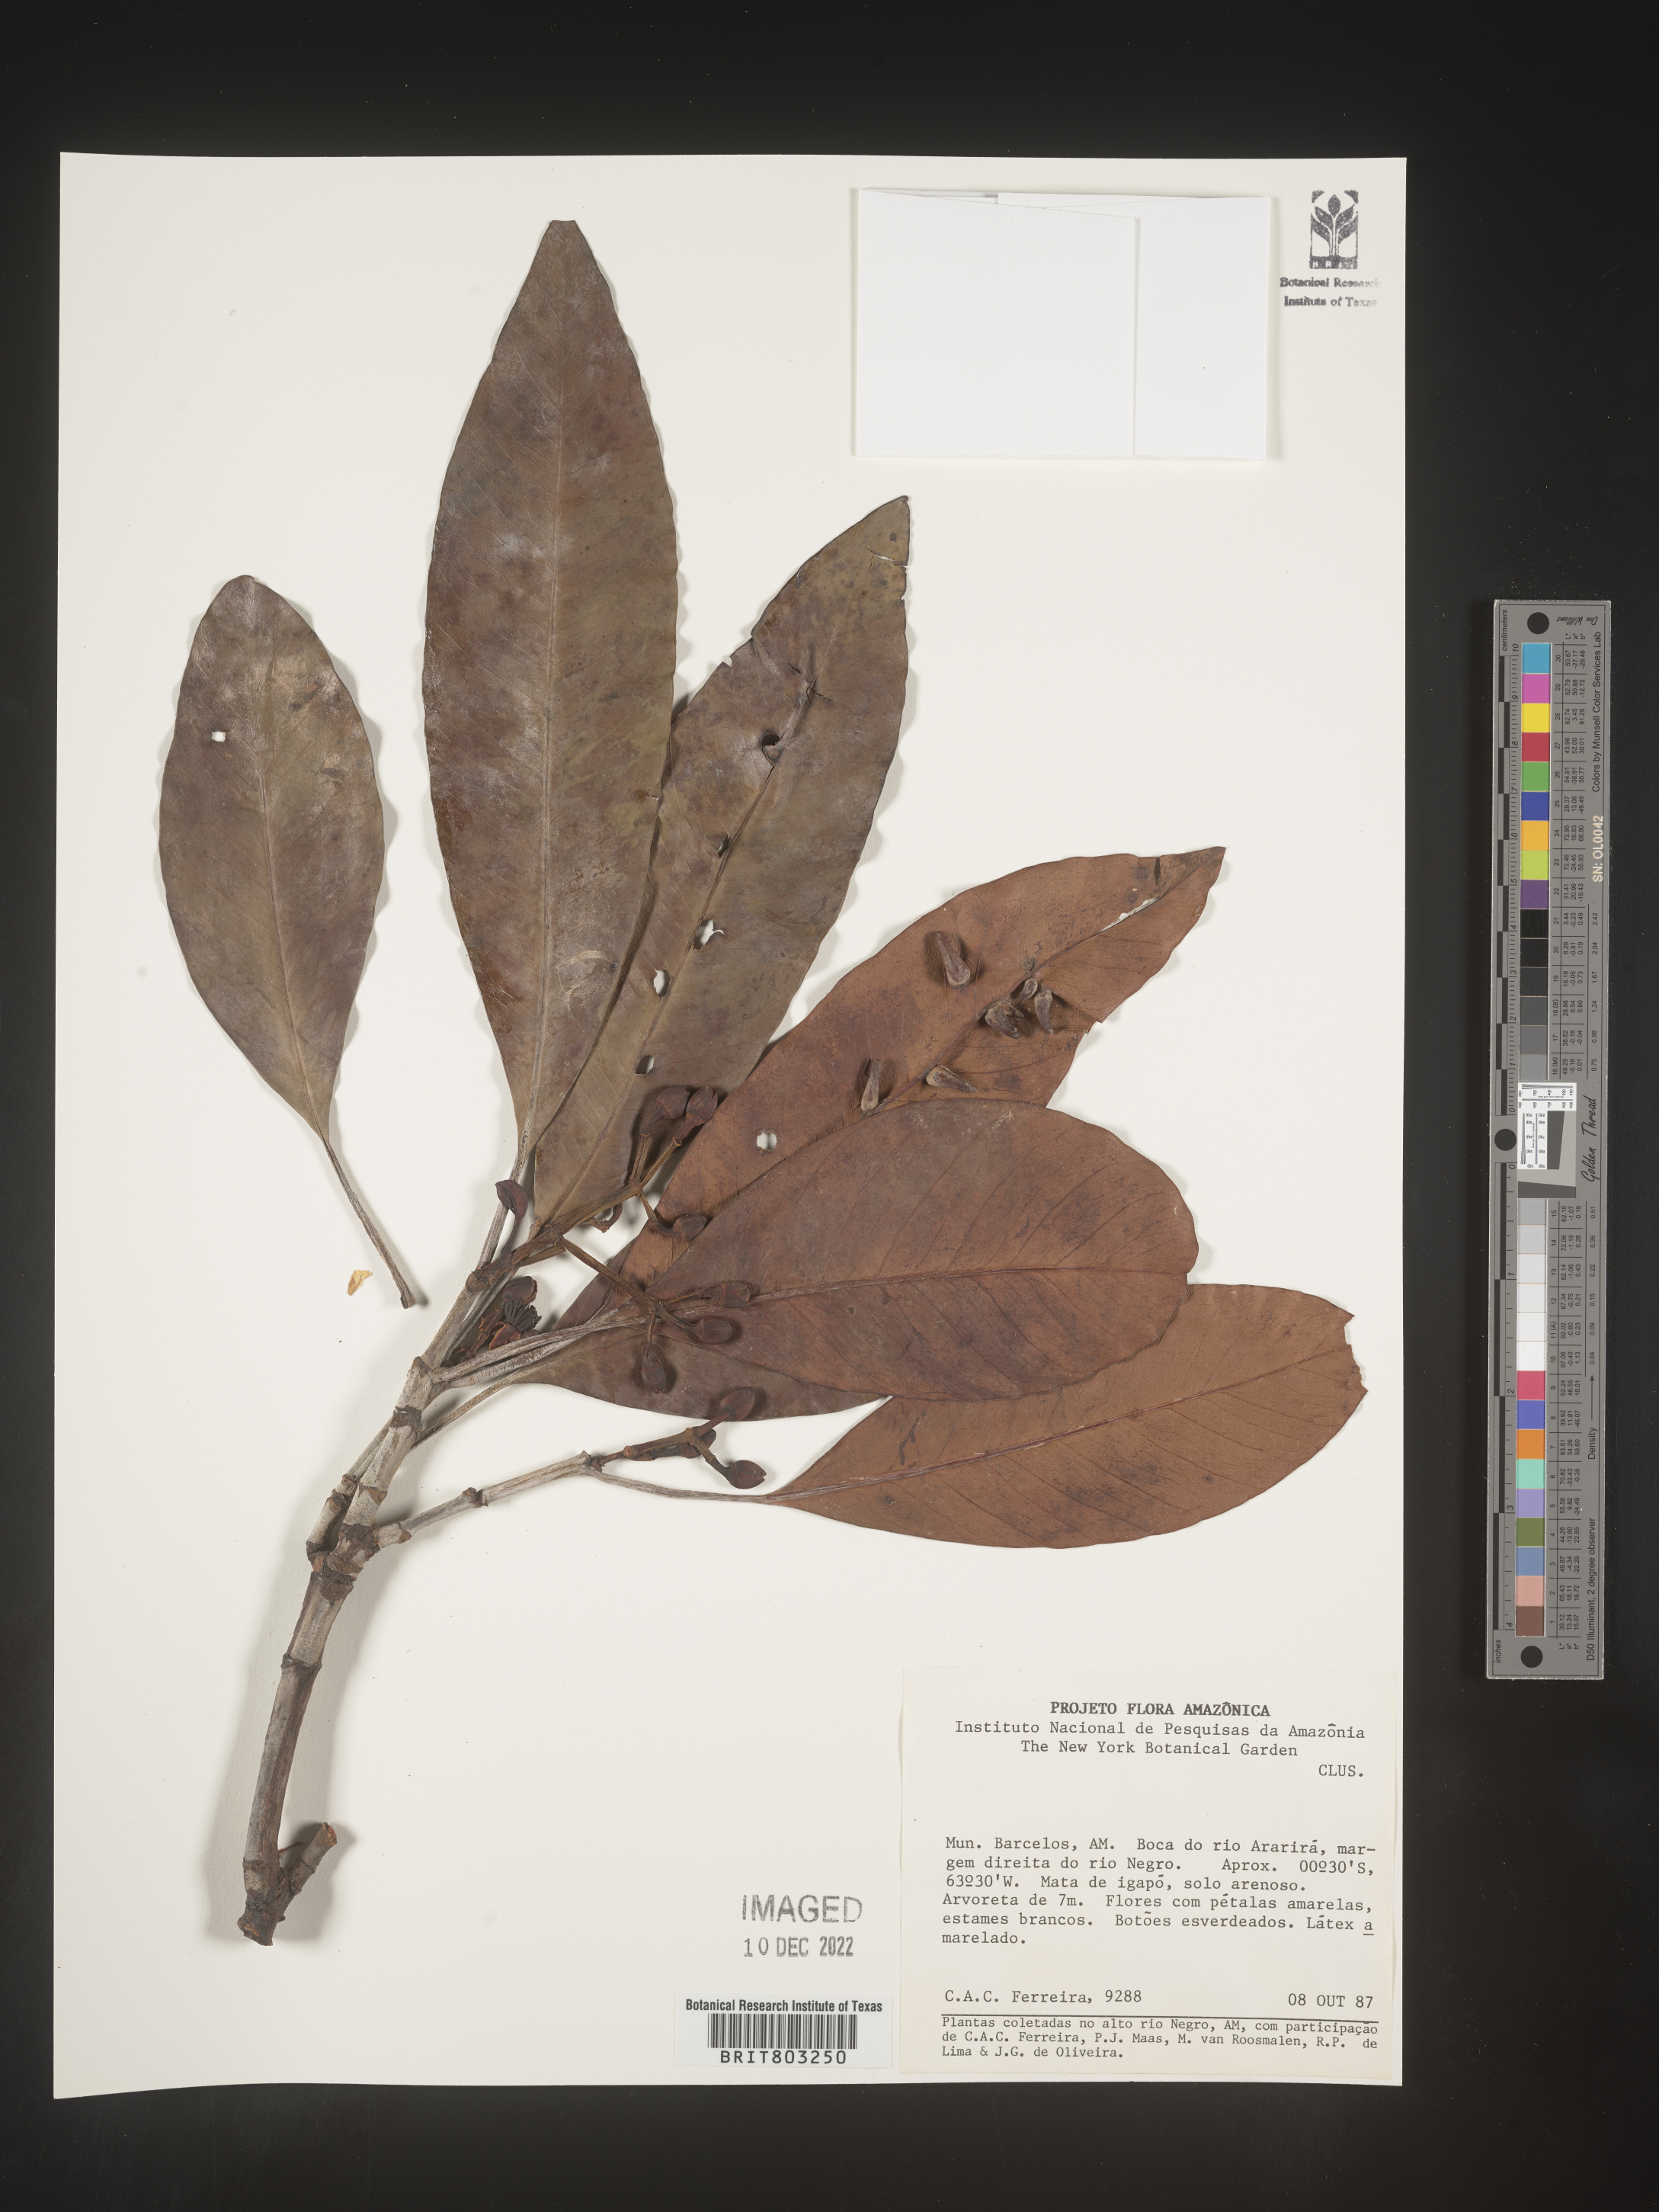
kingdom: Plantae
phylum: Tracheophyta
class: Magnoliopsida
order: Malpighiales
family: Clusiaceae
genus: Tovomita
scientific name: Tovomita
